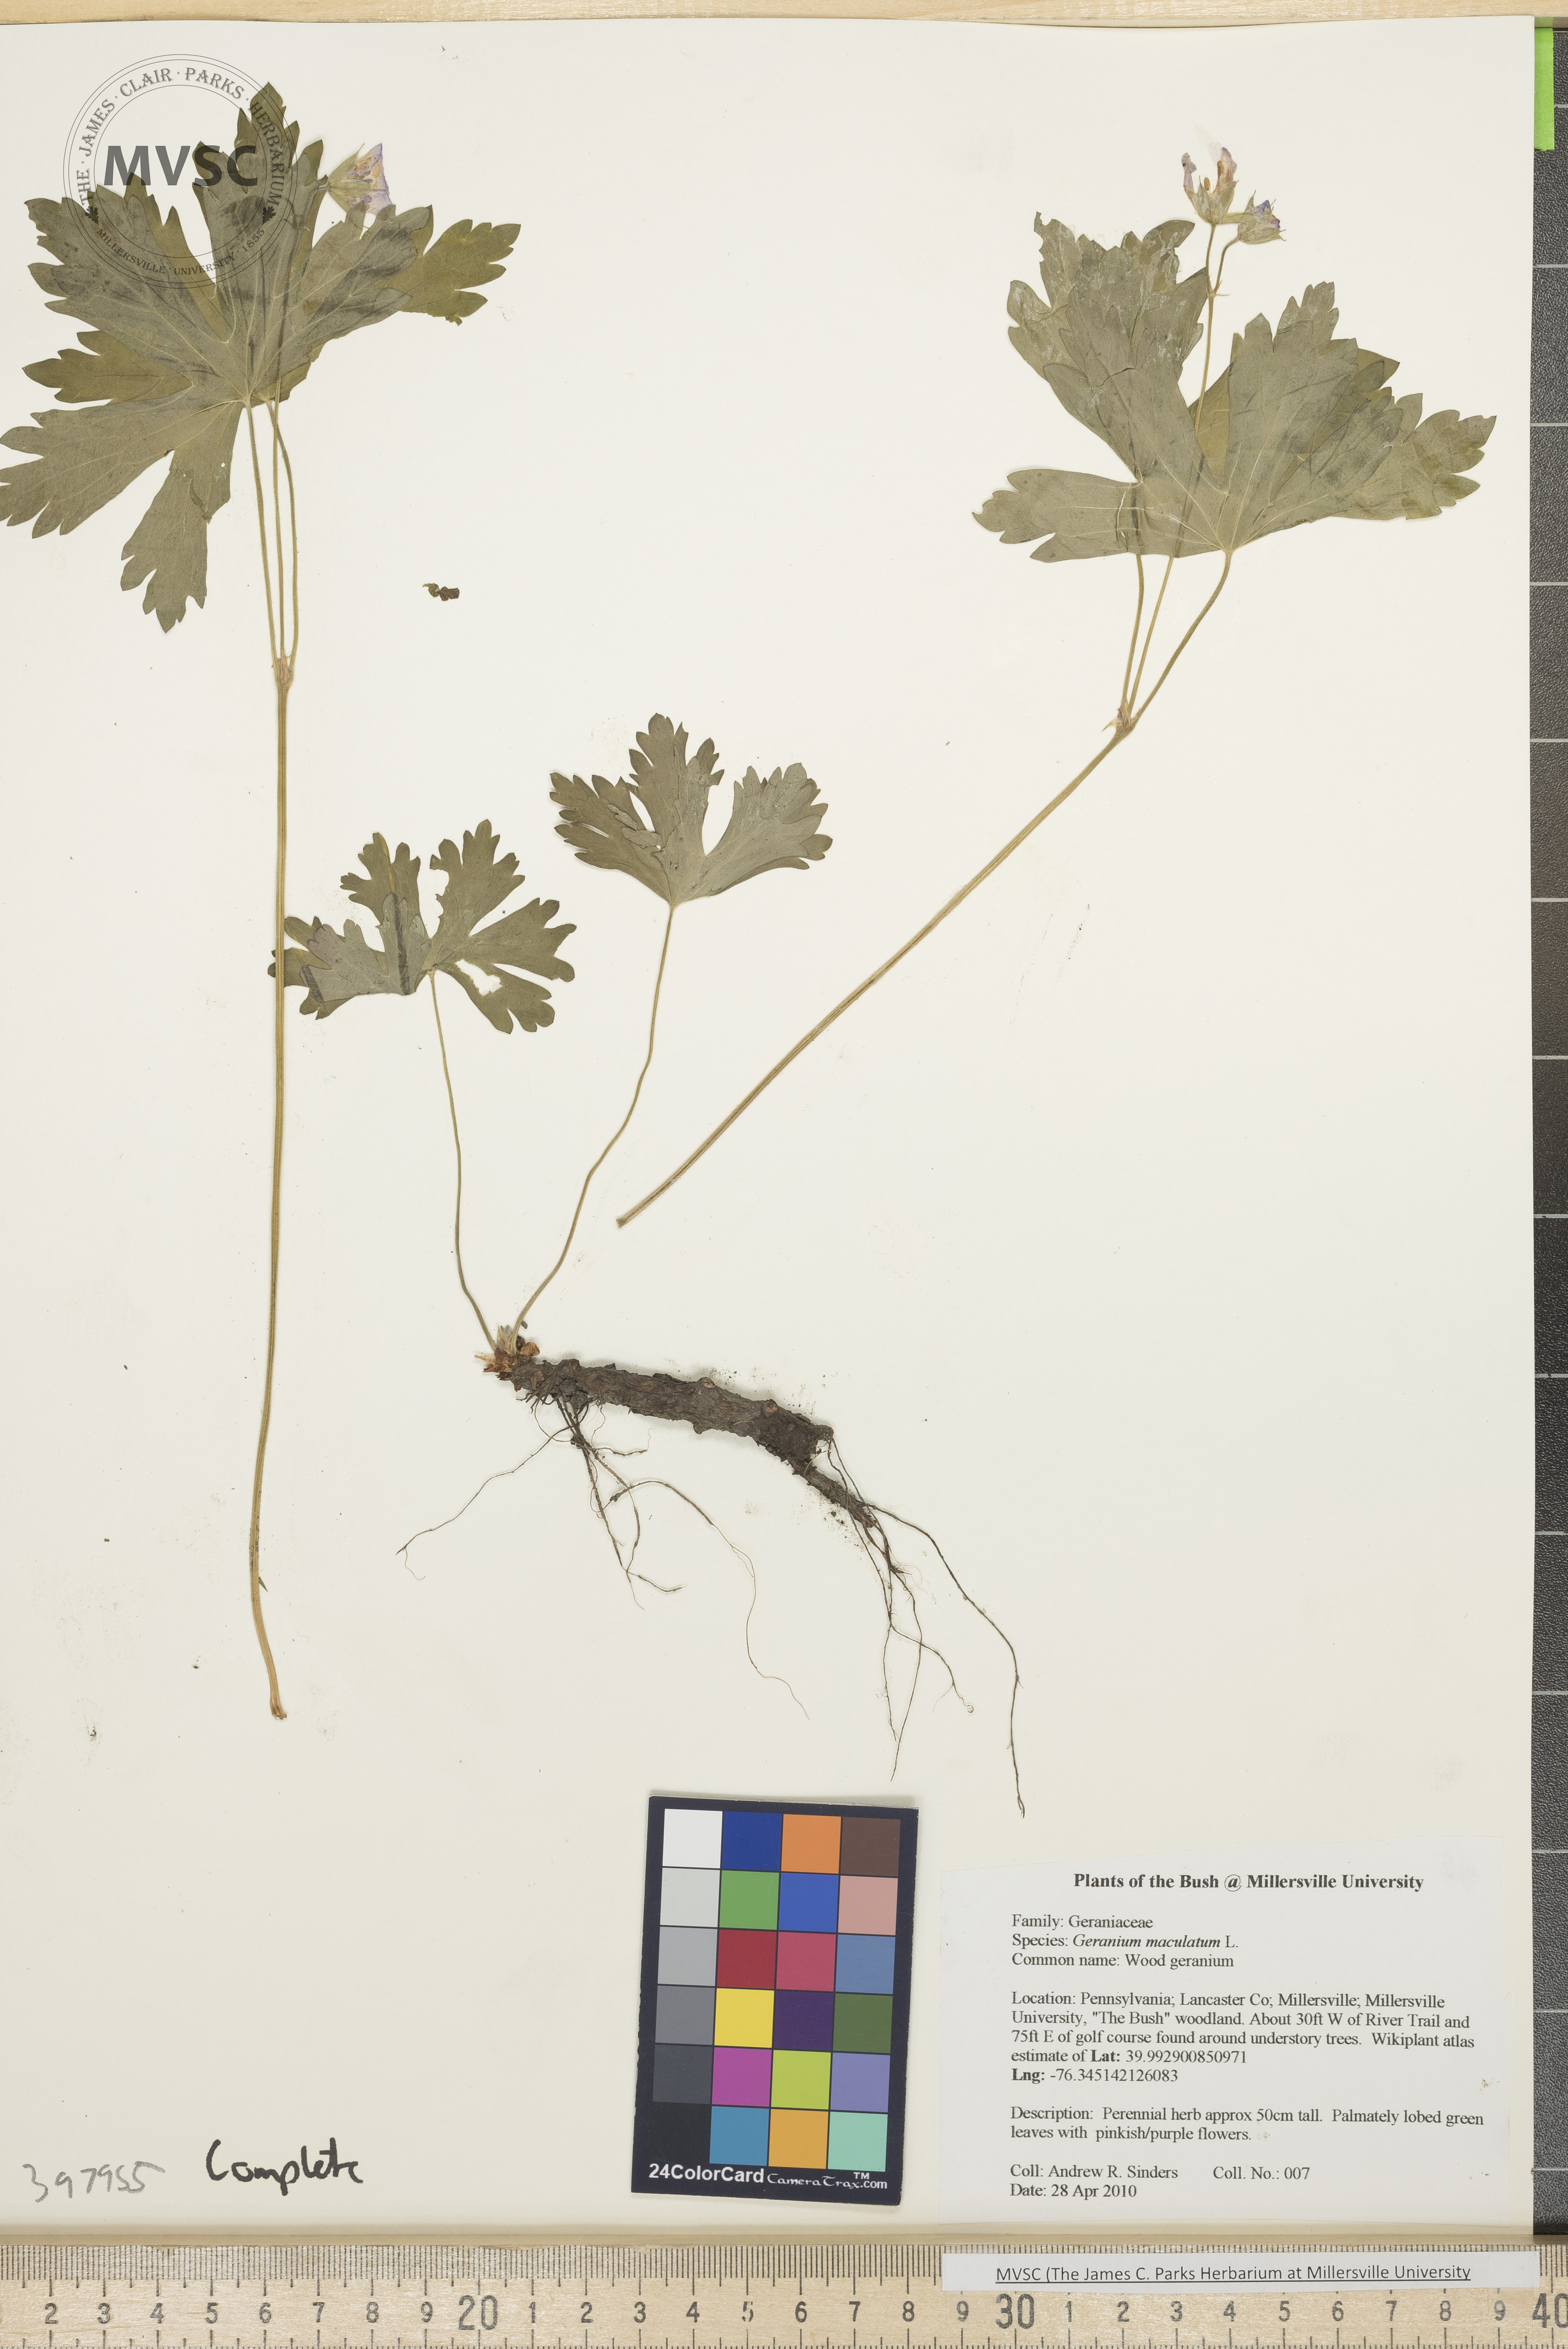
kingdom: Plantae
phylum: Tracheophyta
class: Magnoliopsida
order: Geraniales
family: Geraniaceae
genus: Geranium
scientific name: Geranium maculatum
